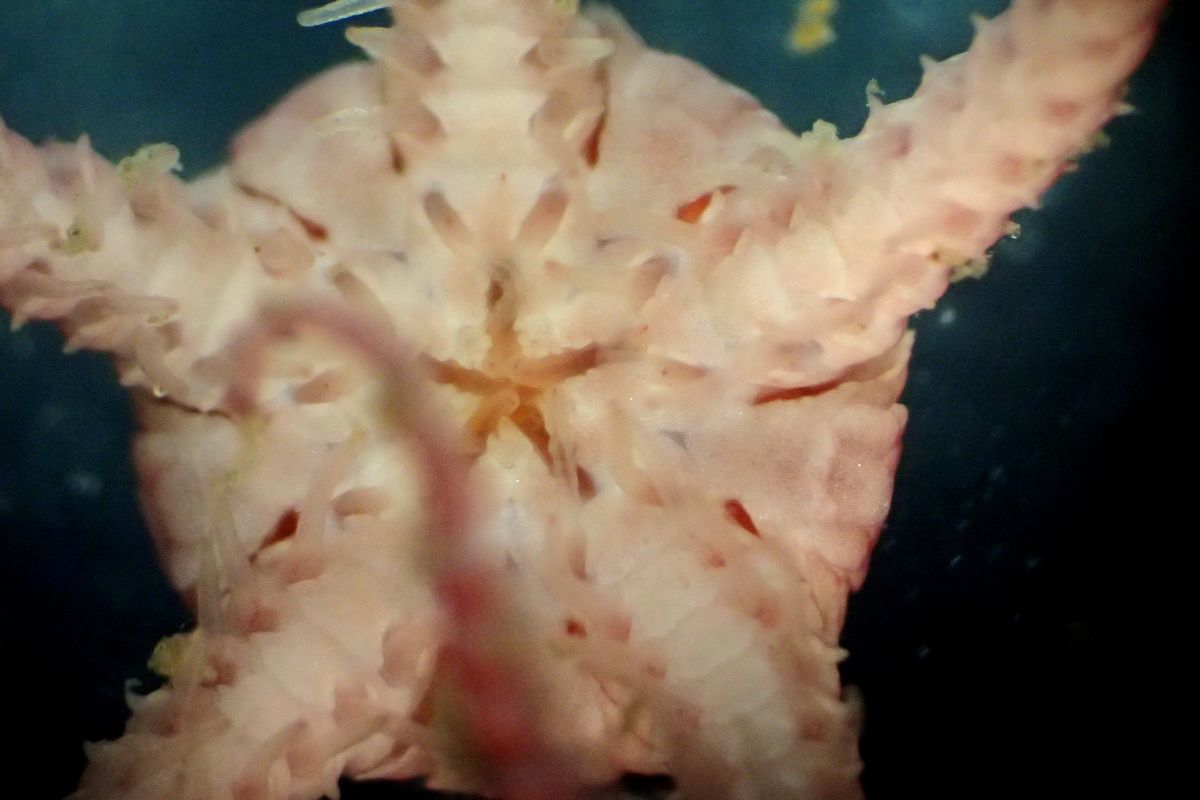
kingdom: Animalia
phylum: Echinodermata
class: Ophiuroidea
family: Ophiopyrgidae
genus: Stegophiura
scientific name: Stegophiura nodosa
